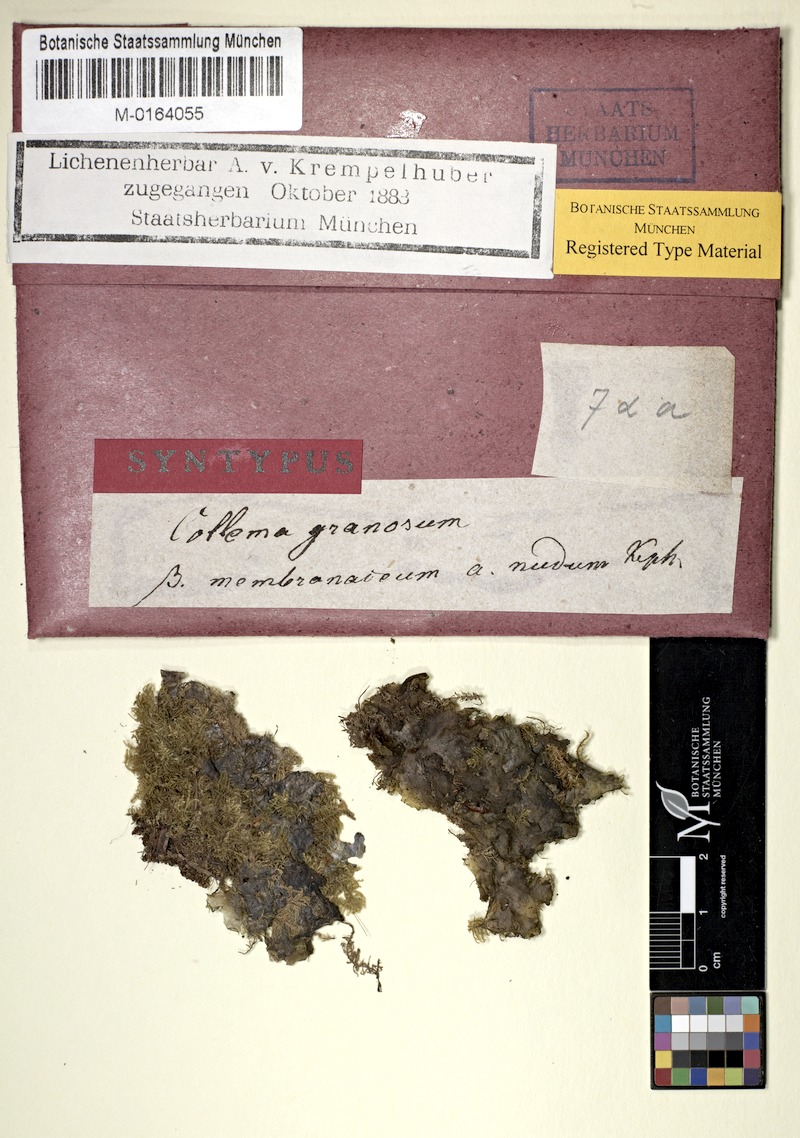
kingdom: Fungi
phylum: Ascomycota
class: Lecanoromycetes
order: Peltigerales
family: Collemataceae
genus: Lathagrium
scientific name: Lathagrium auriforme
